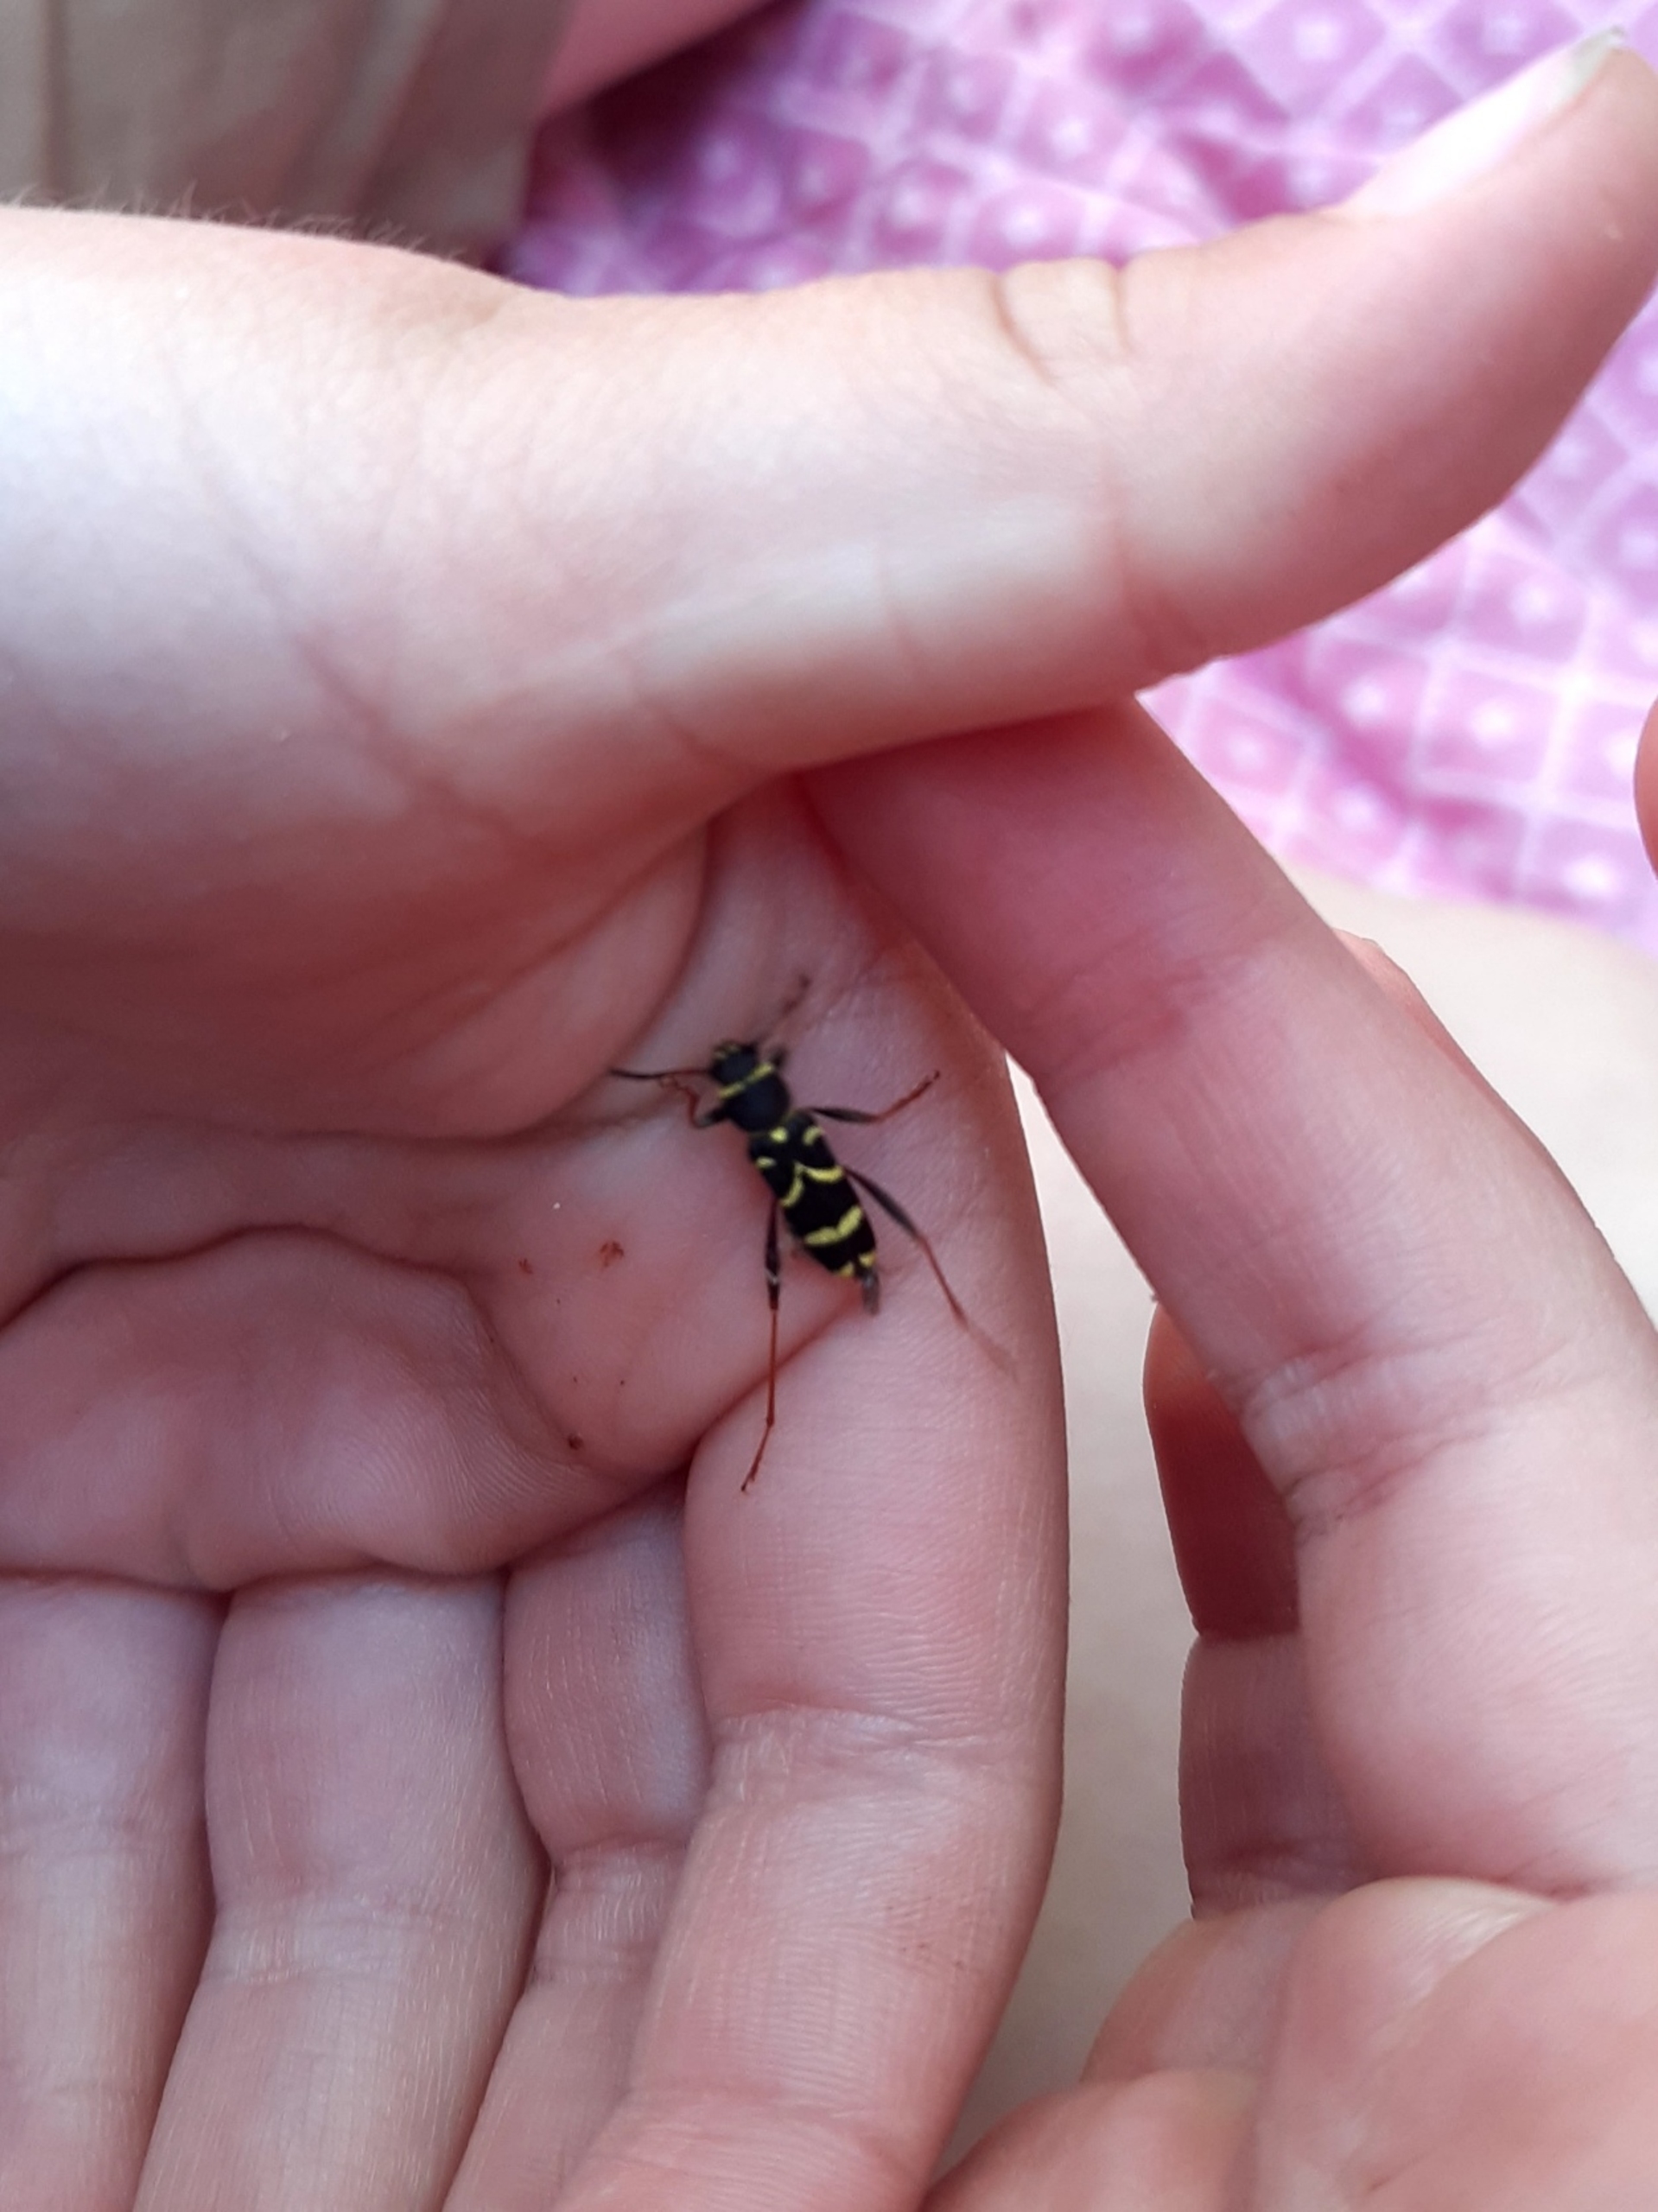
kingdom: Animalia
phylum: Arthropoda
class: Insecta
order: Coleoptera
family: Cerambycidae
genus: Clytus
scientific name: Clytus arietis
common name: Lille hvepsebuk
